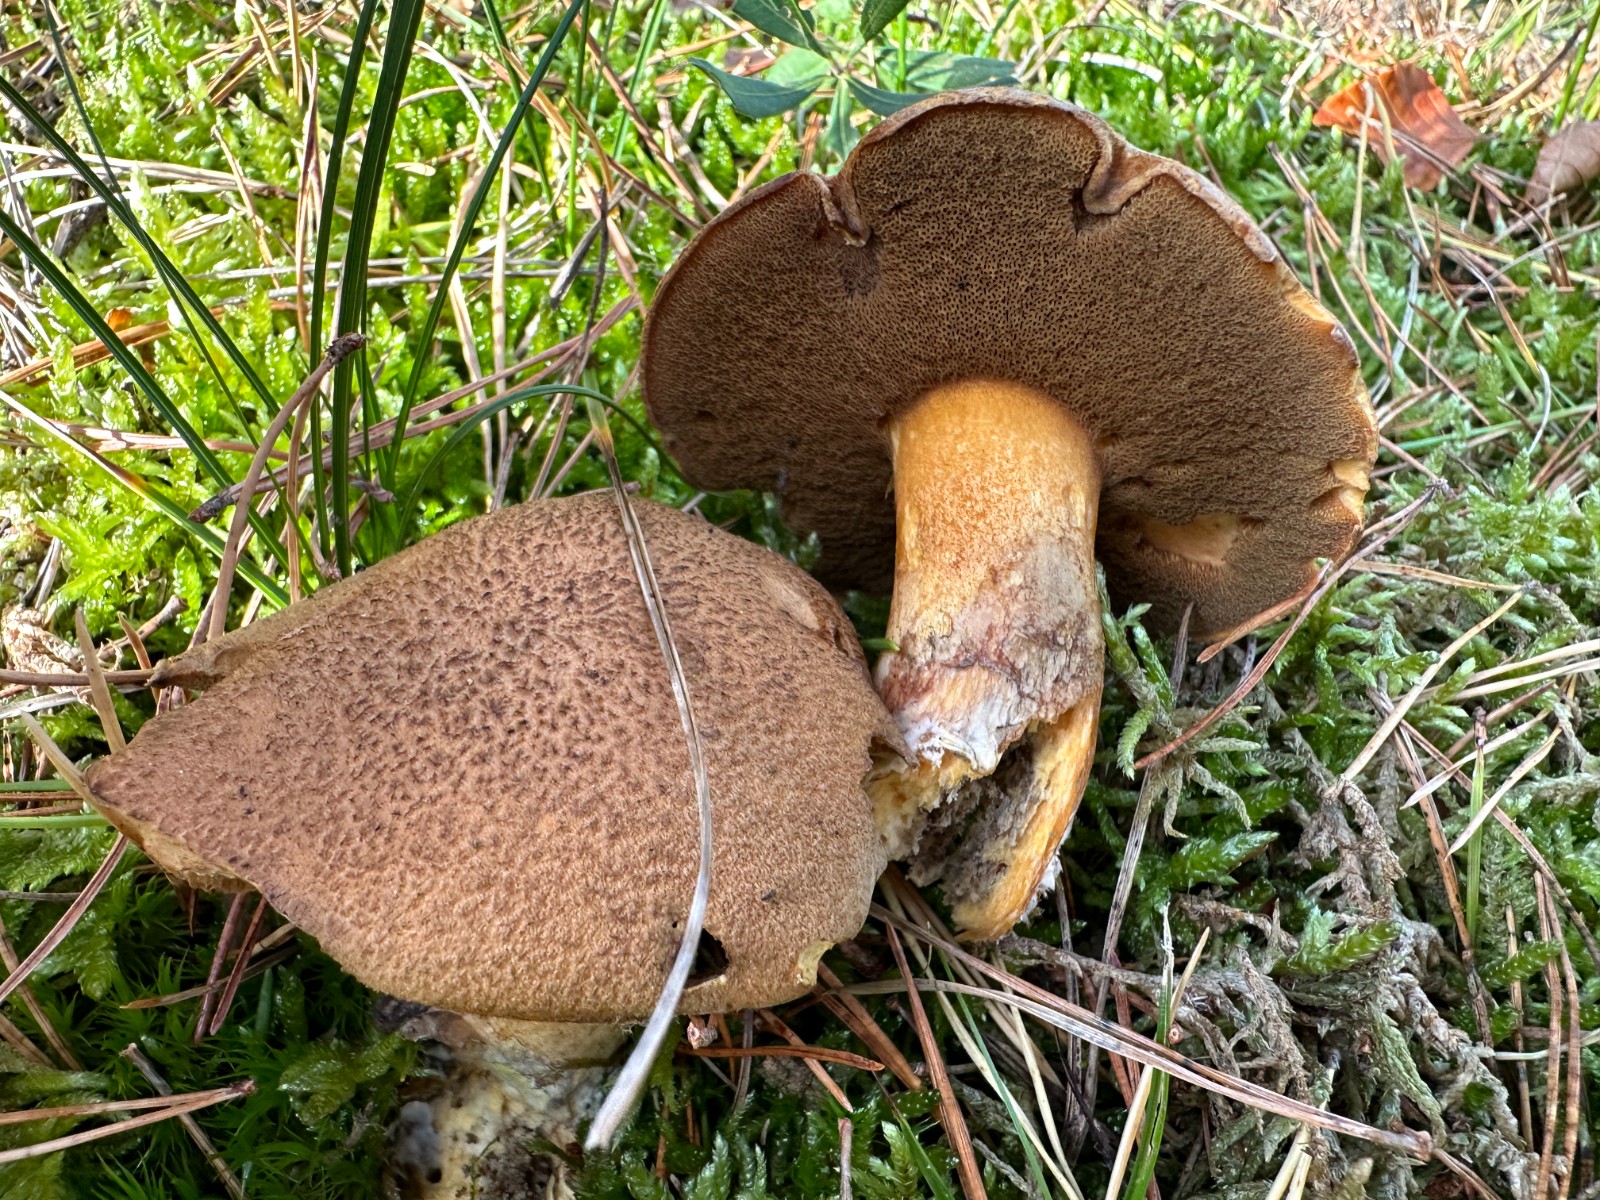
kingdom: Fungi
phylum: Basidiomycota
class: Agaricomycetes
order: Boletales
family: Suillaceae
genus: Suillus
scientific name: Suillus variegatus
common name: broget slimrørhat
